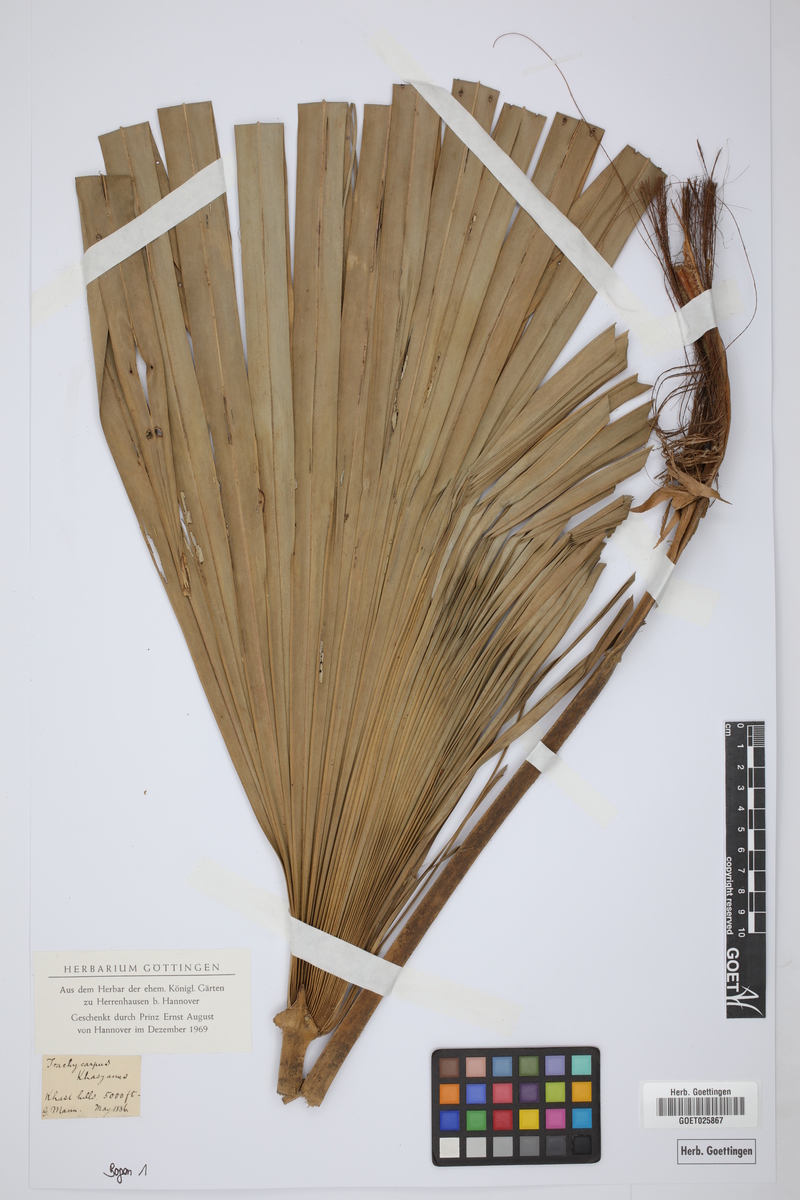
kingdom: Plantae
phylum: Tracheophyta
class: Liliopsida
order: Arecales
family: Arecaceae
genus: Trachycarpus
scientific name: Trachycarpus martianus
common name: Martius's windmill palm
